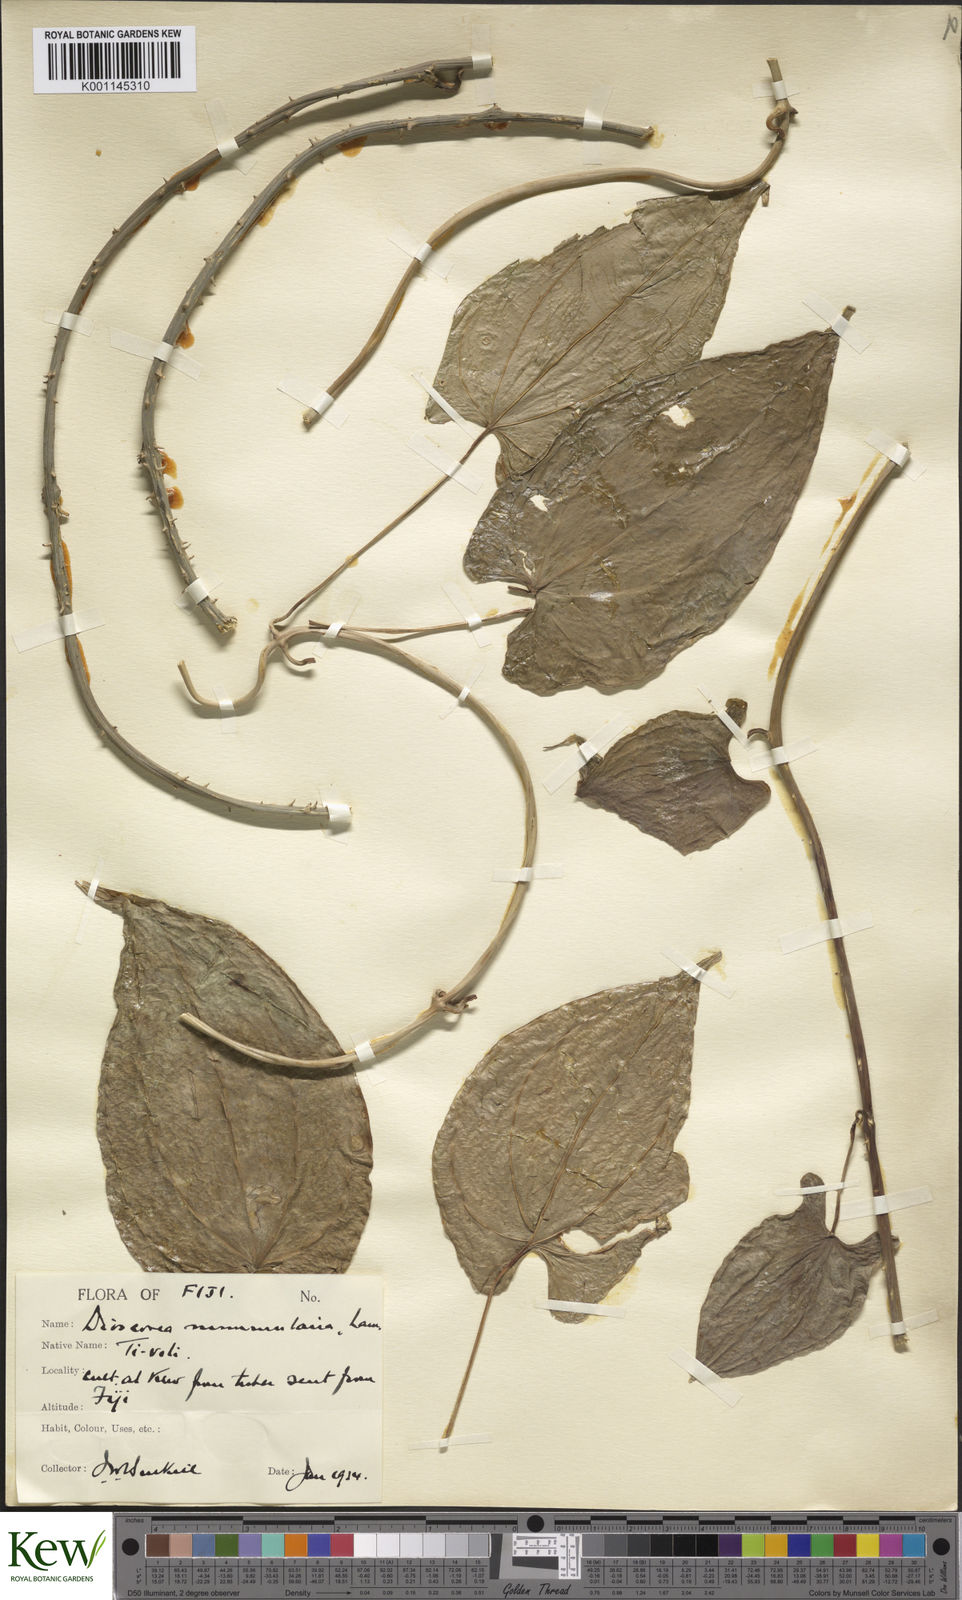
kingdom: Plantae
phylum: Tracheophyta
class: Liliopsida
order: Dioscoreales
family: Dioscoreaceae
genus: Dioscorea
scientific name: Dioscorea nummularia
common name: Pacific yam
